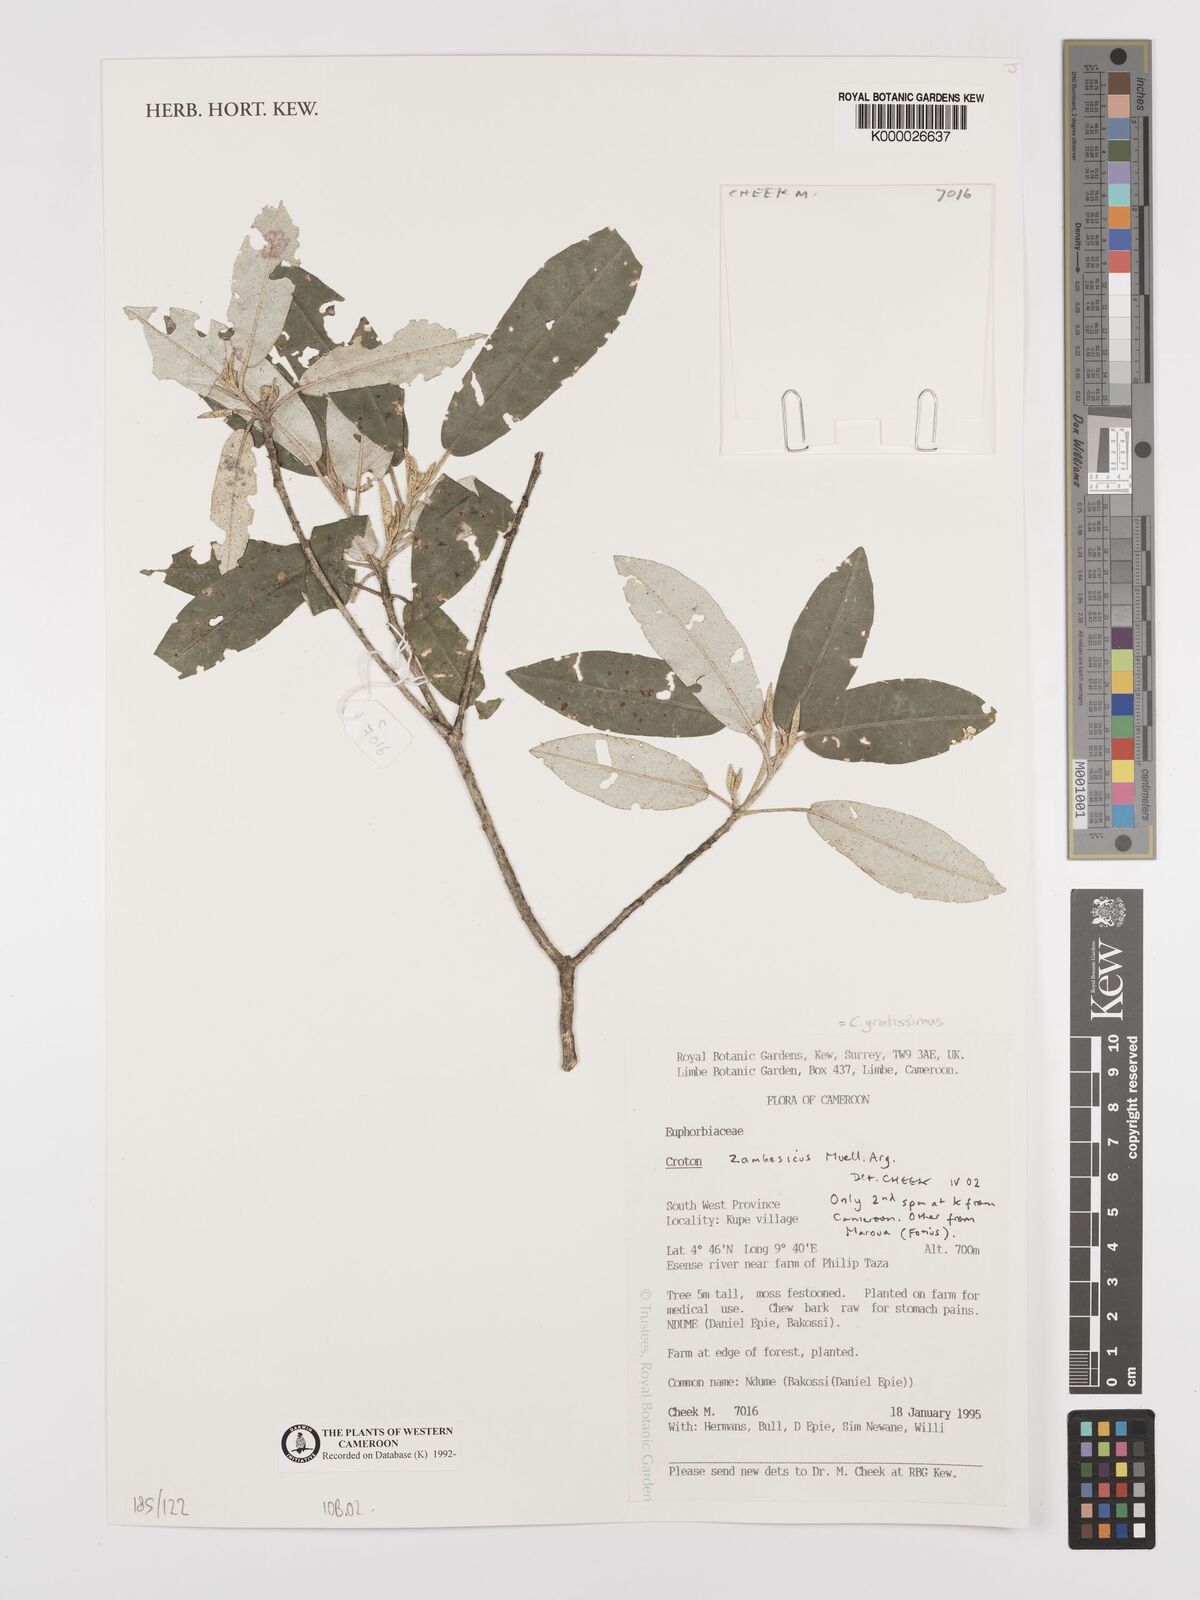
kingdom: Plantae
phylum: Tracheophyta
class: Magnoliopsida
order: Malpighiales
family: Euphorbiaceae
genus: Croton
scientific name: Croton gratissimus
